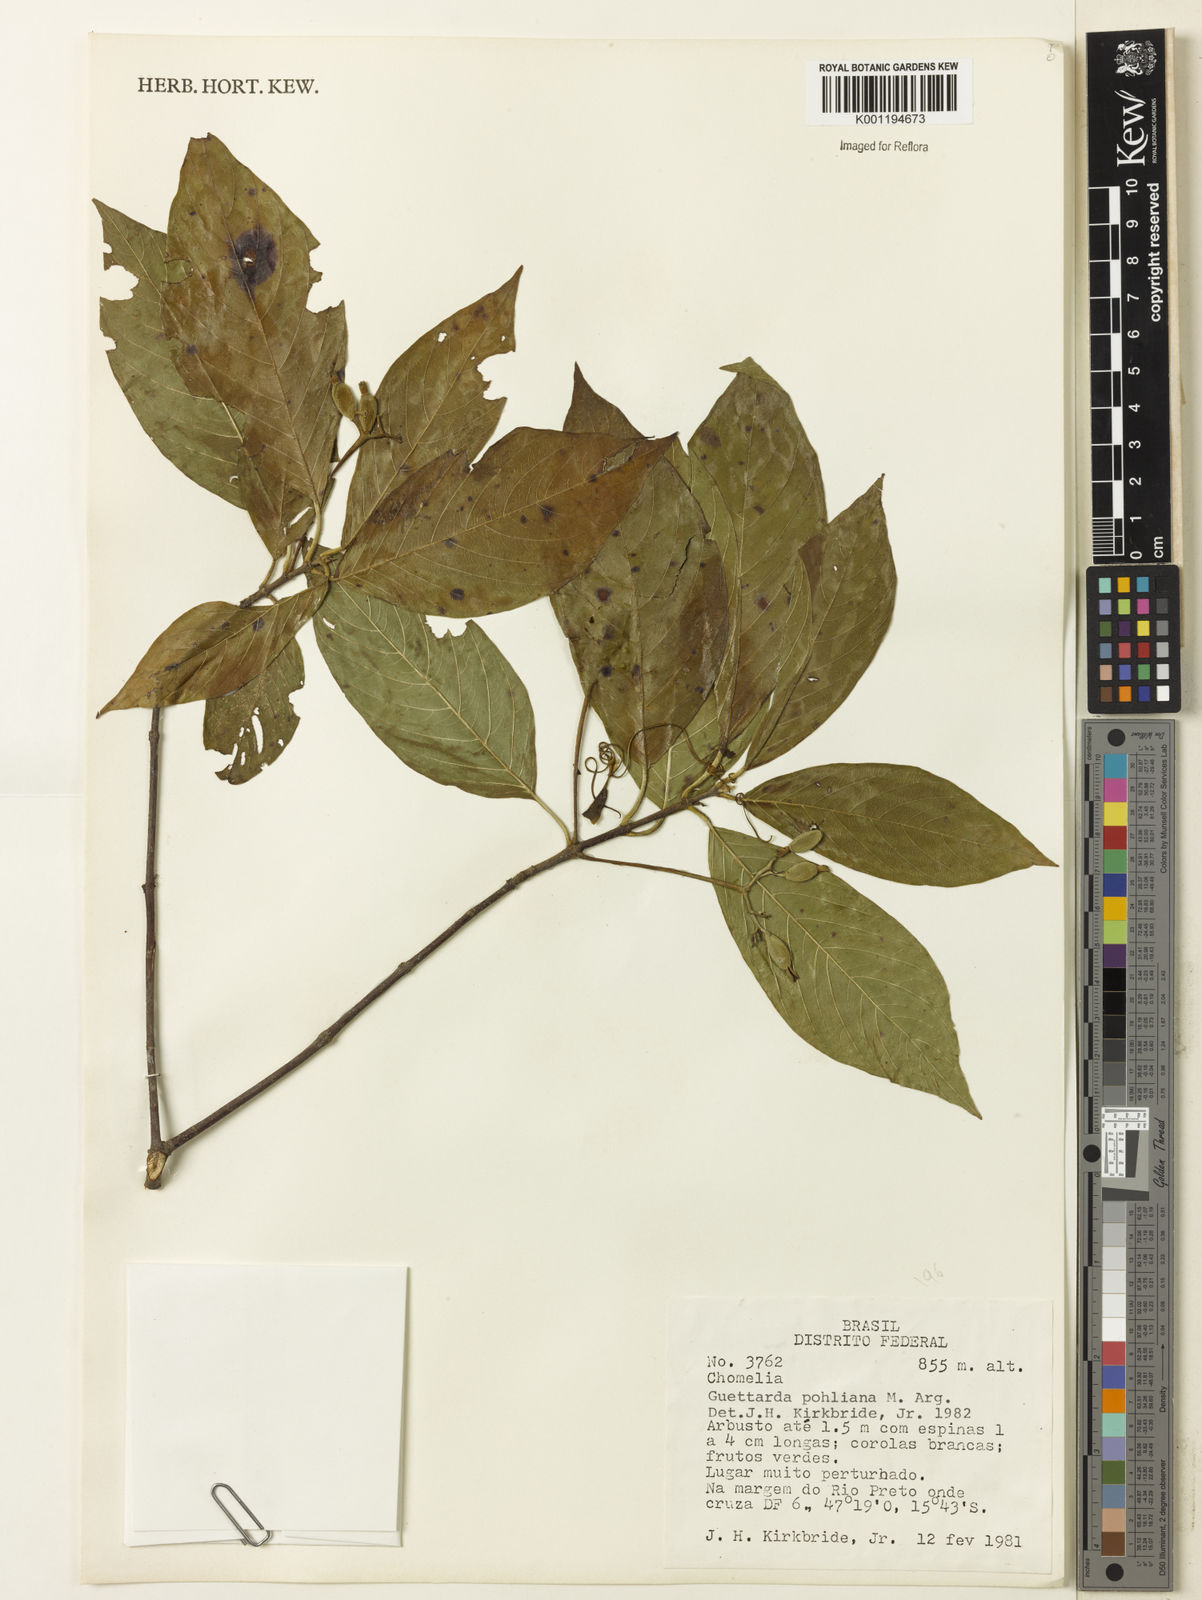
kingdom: Plantae
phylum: Tracheophyta
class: Magnoliopsida
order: Gentianales
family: Rubiaceae
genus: Guettarda
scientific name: Guettarda
